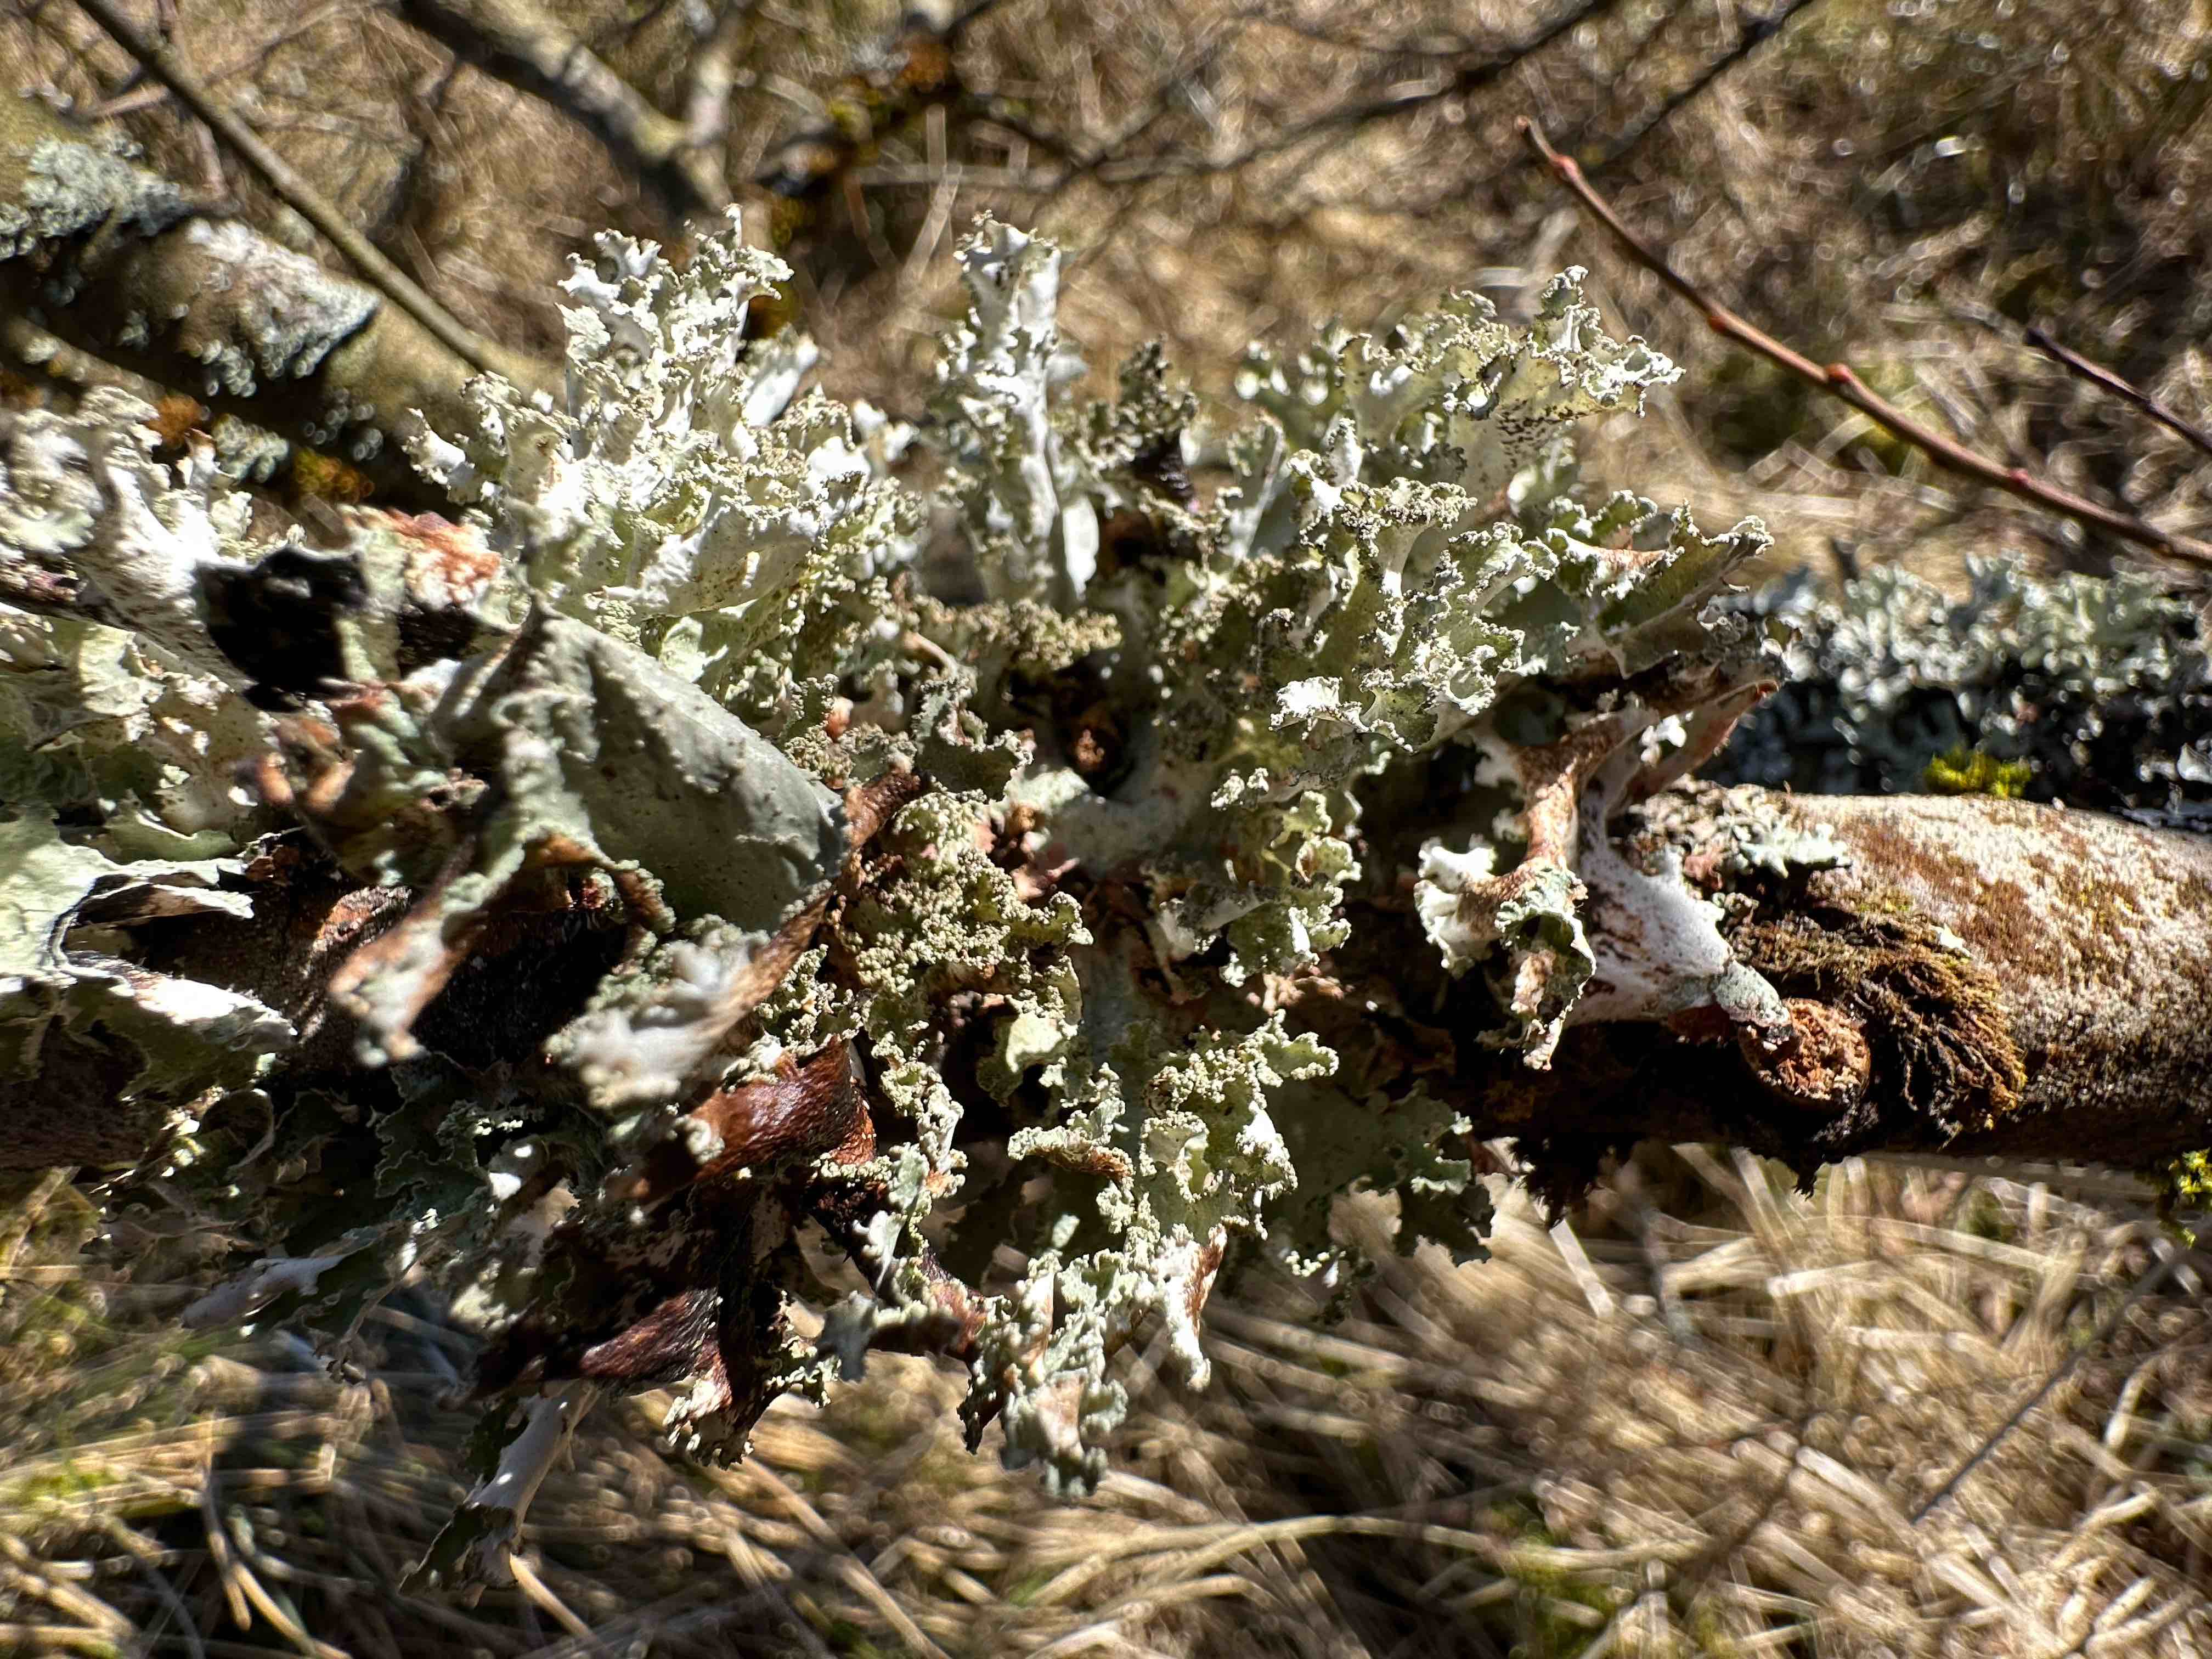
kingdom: Fungi
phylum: Ascomycota
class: Lecanoromycetes
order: Lecanorales
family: Parmeliaceae
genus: Platismatia
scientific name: Platismatia glauca
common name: blågrå papirlav
